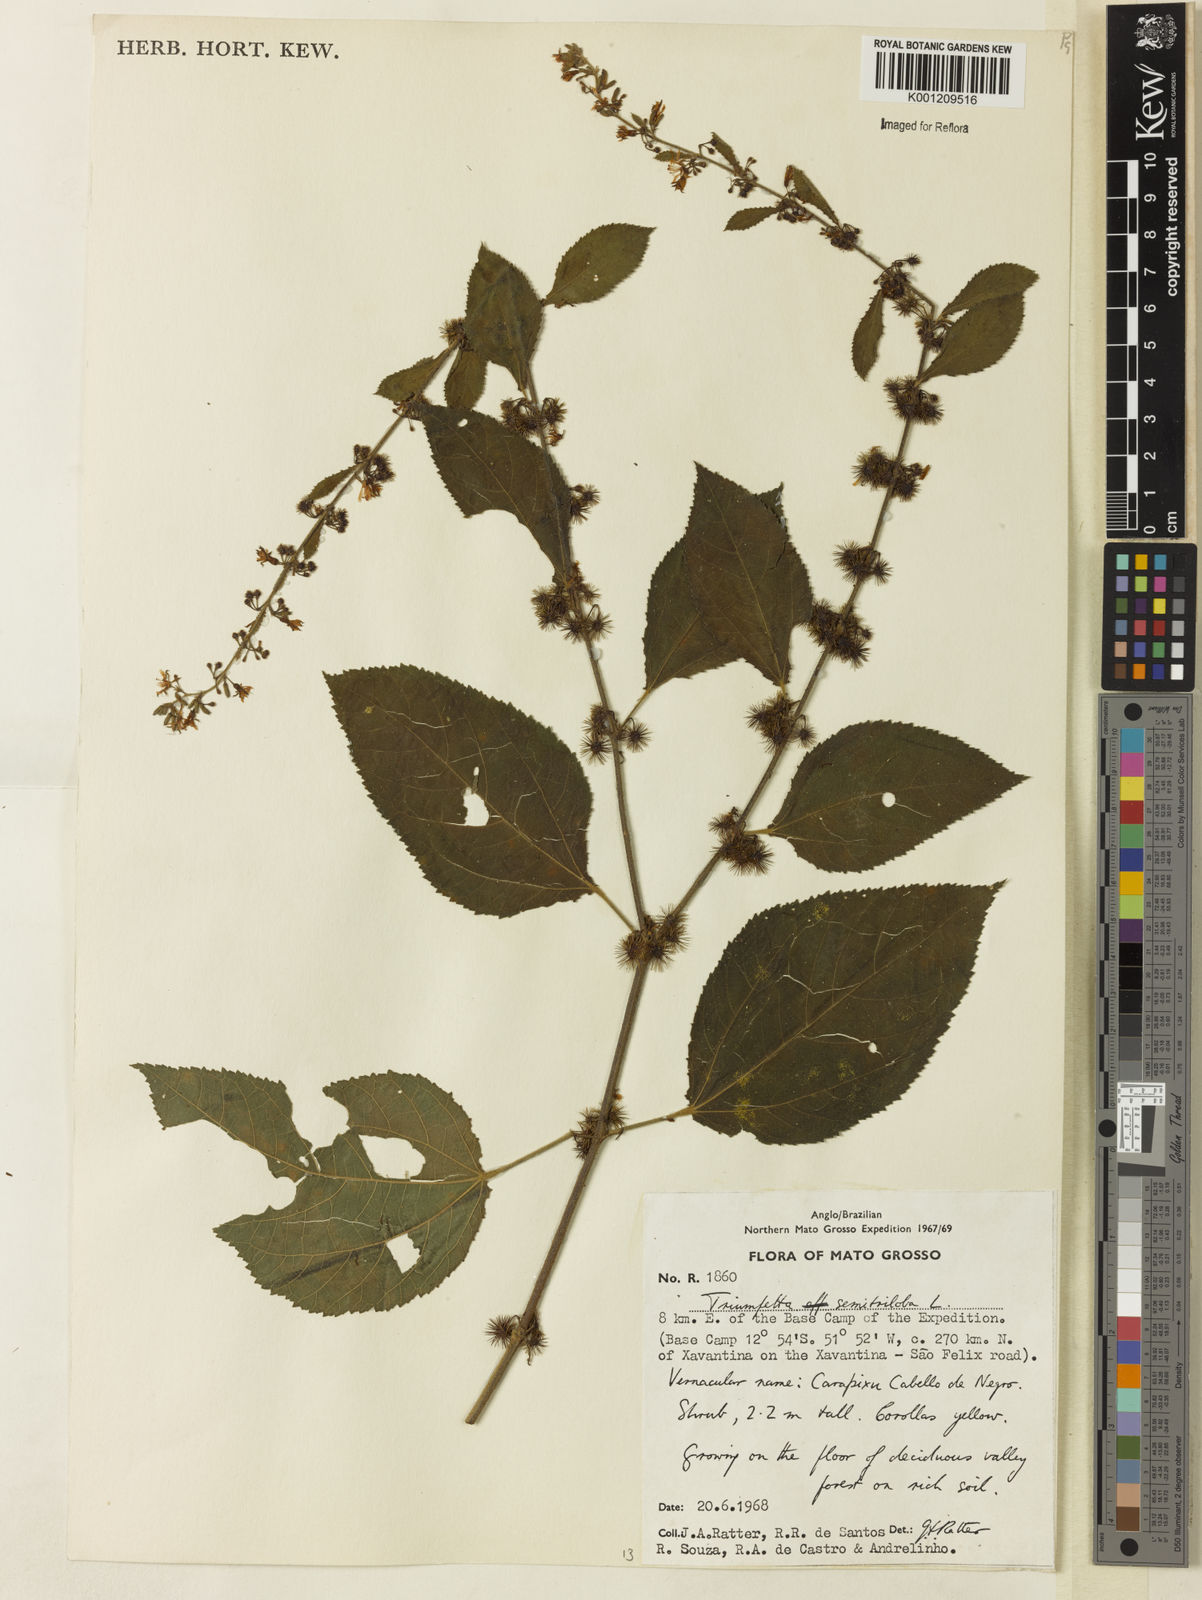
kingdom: Plantae
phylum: Tracheophyta
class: Magnoliopsida
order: Malvales
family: Malvaceae
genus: Triumfetta
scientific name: Triumfetta semitriloba
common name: Sacramento burbark
